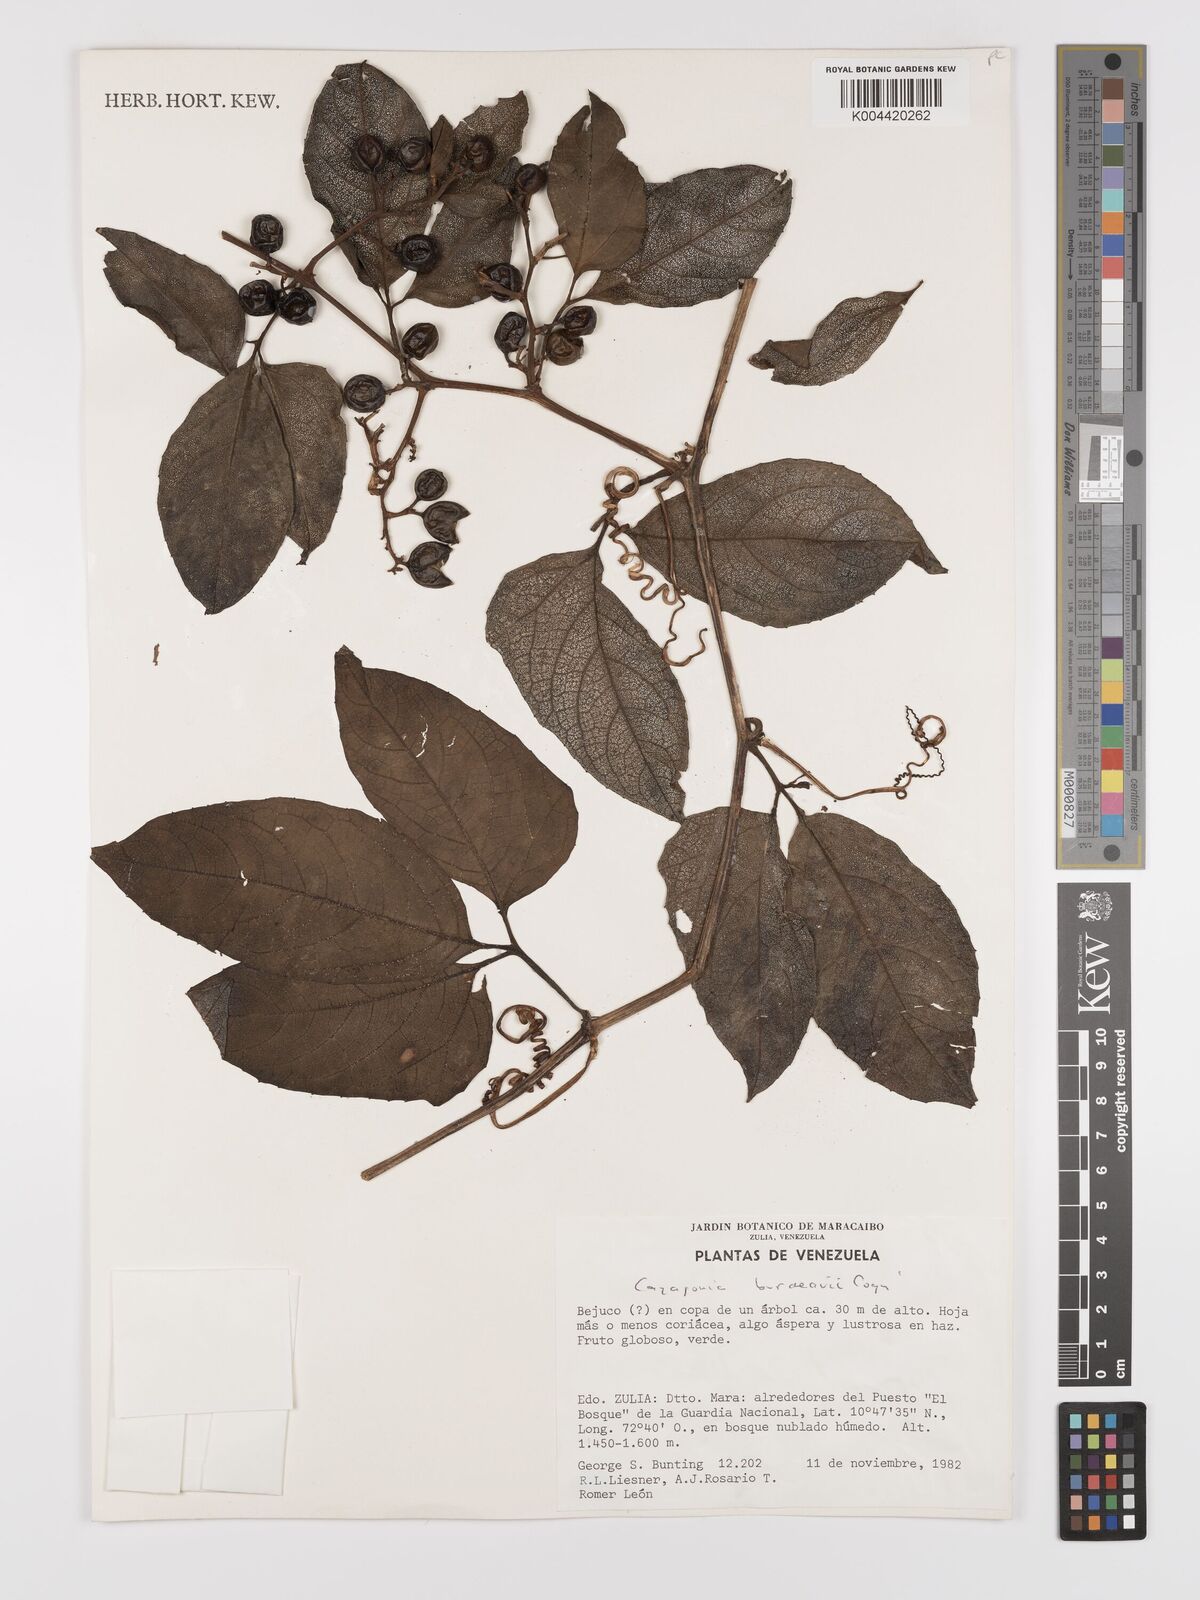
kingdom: Plantae
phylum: Tracheophyta
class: Magnoliopsida
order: Cucurbitales
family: Cucurbitaceae
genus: Cayaponia
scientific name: Cayaponia buraeavii
